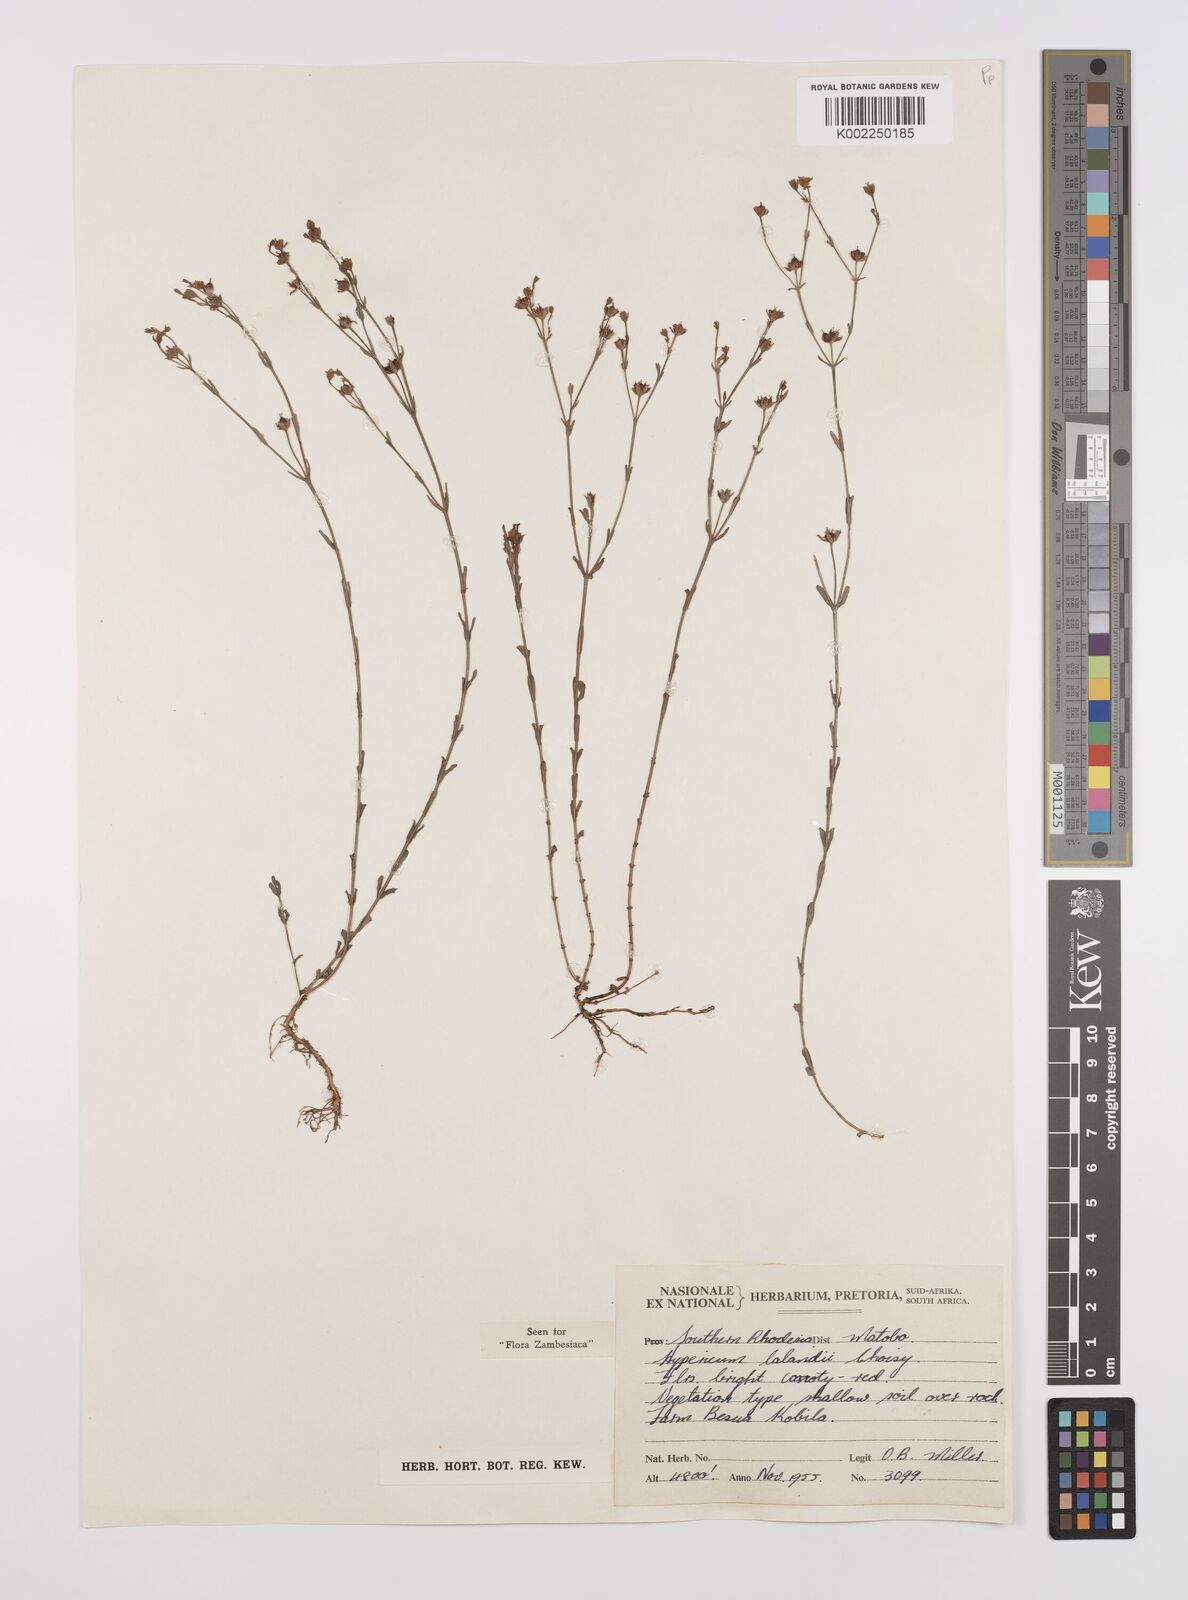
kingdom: Plantae
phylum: Tracheophyta
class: Magnoliopsida
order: Malpighiales
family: Hypericaceae
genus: Hypericum
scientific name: Hypericum lalandii
